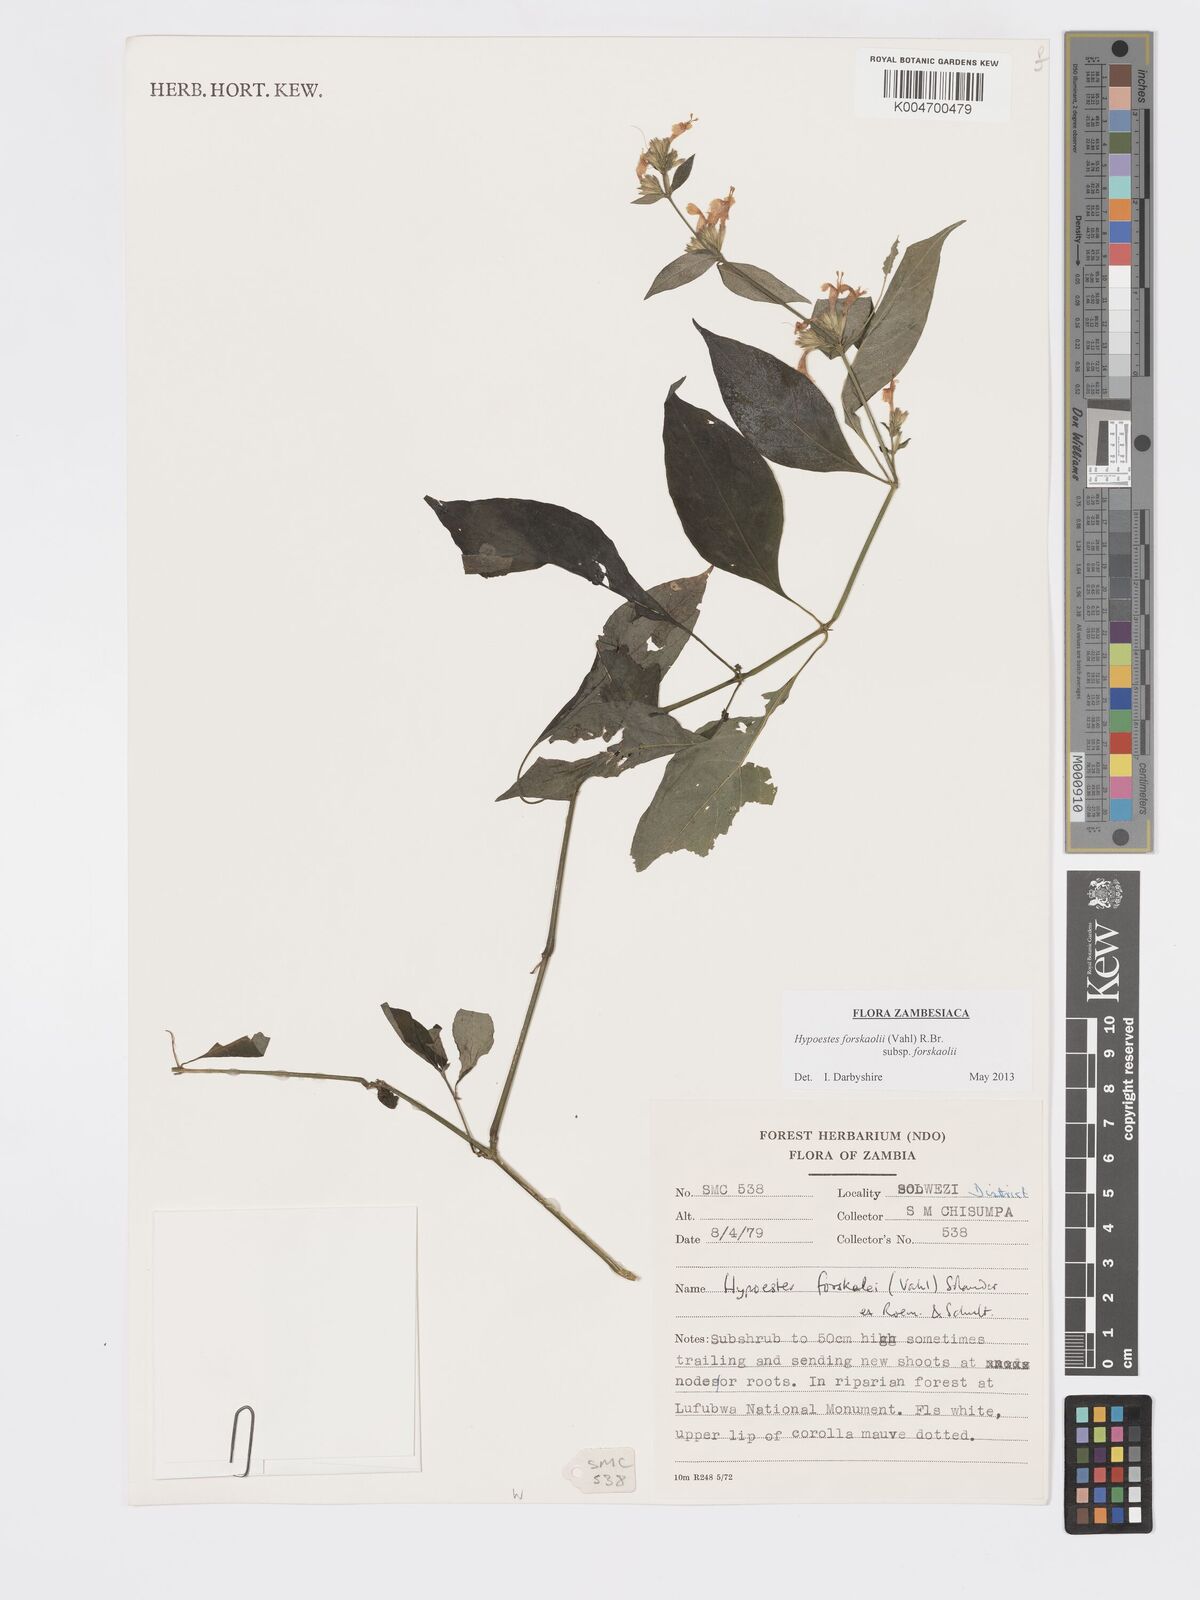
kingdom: Plantae
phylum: Tracheophyta
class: Magnoliopsida
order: Lamiales
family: Acanthaceae
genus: Hypoestes
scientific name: Hypoestes forskaolii
